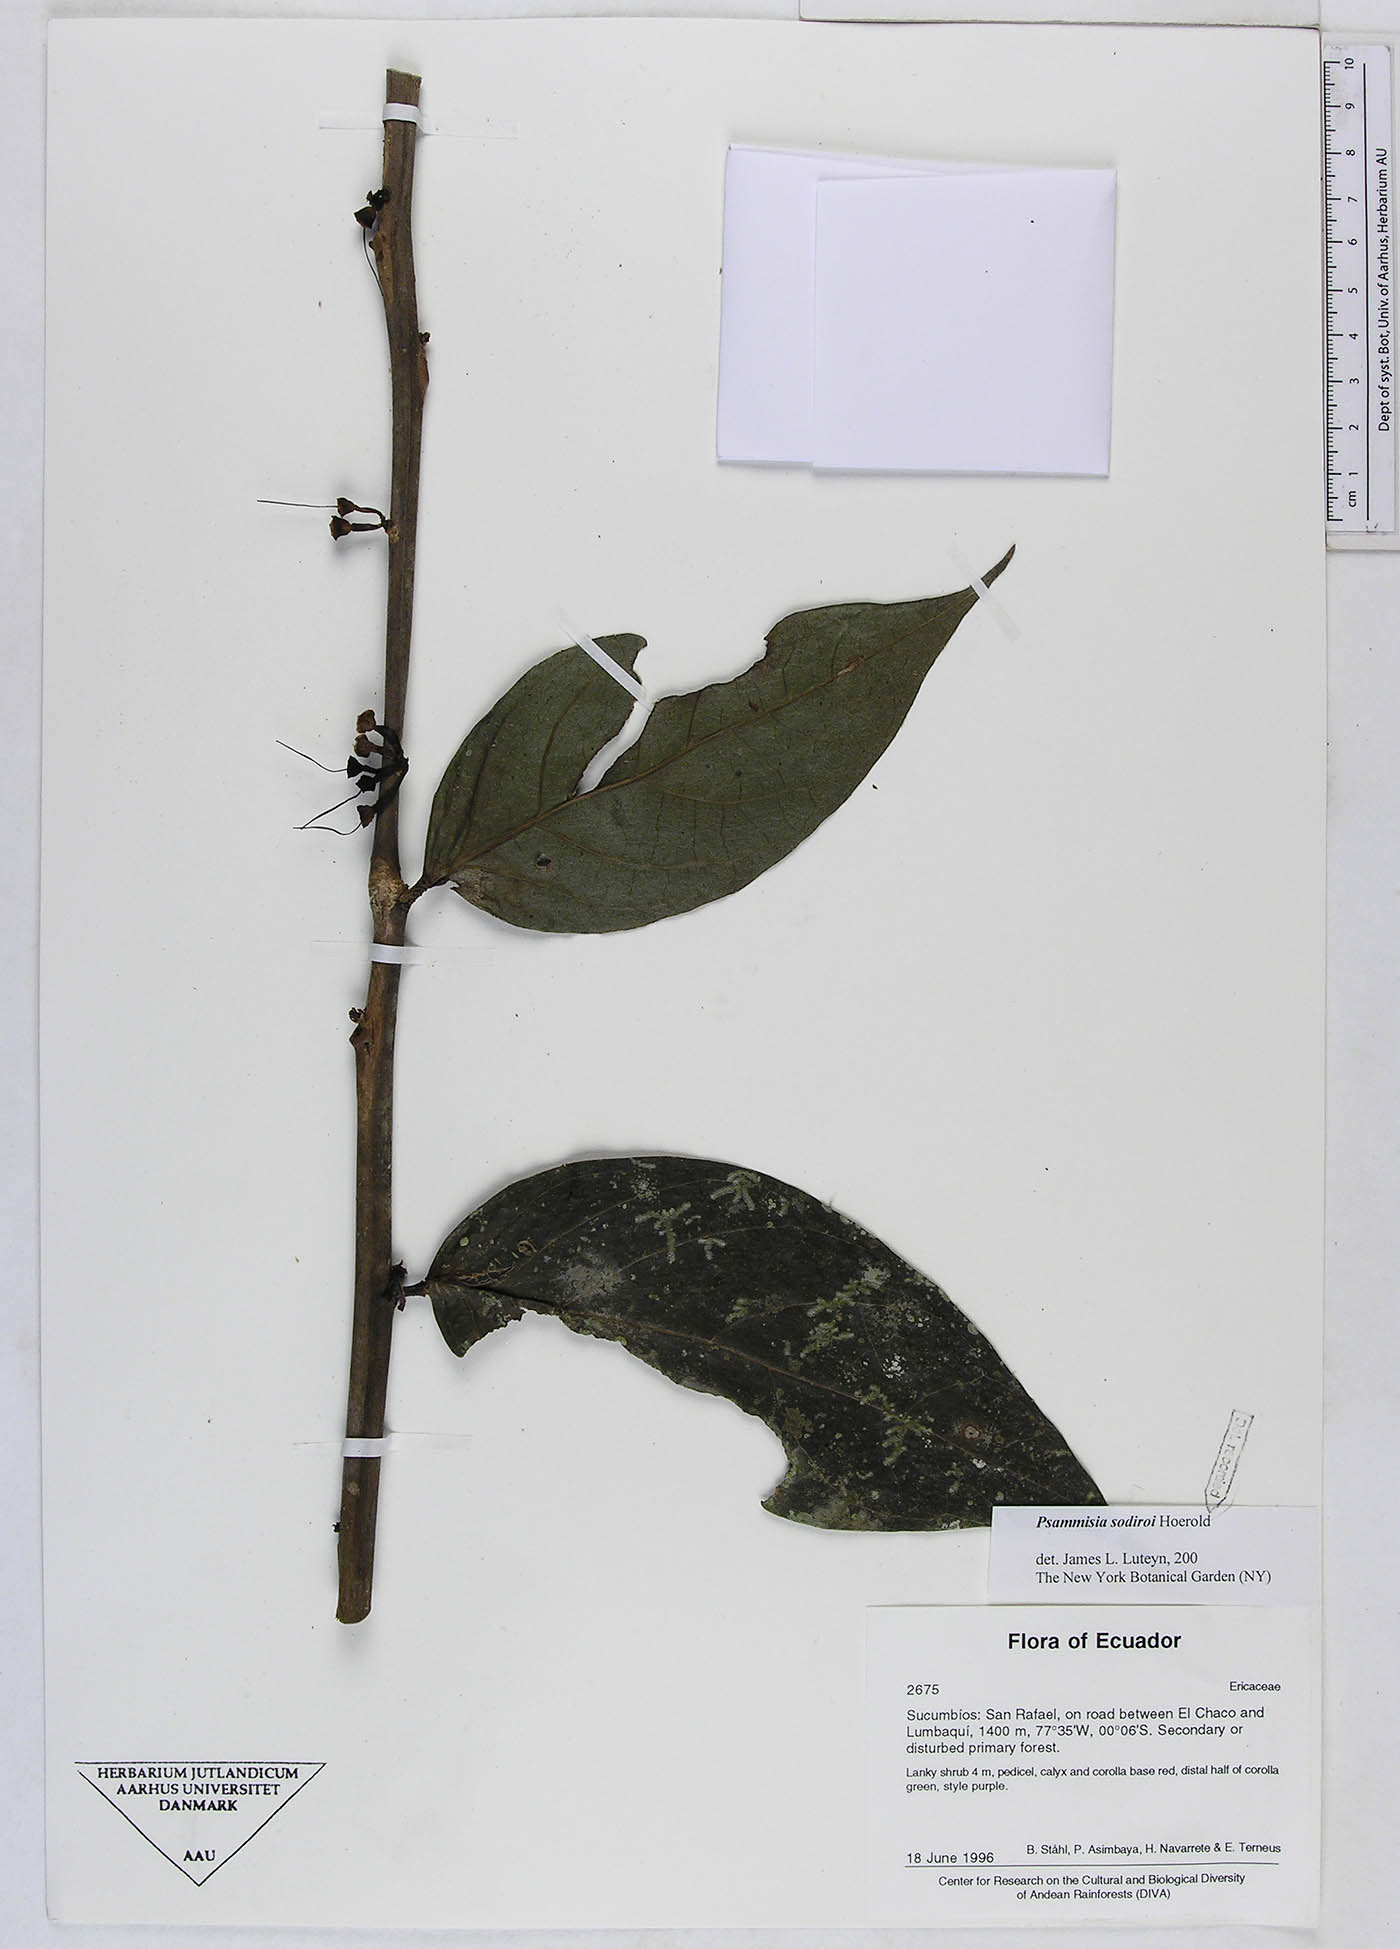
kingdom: Plantae
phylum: Tracheophyta
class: Magnoliopsida
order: Ericales
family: Ericaceae
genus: Psammisia
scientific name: Psammisia sodiroi
